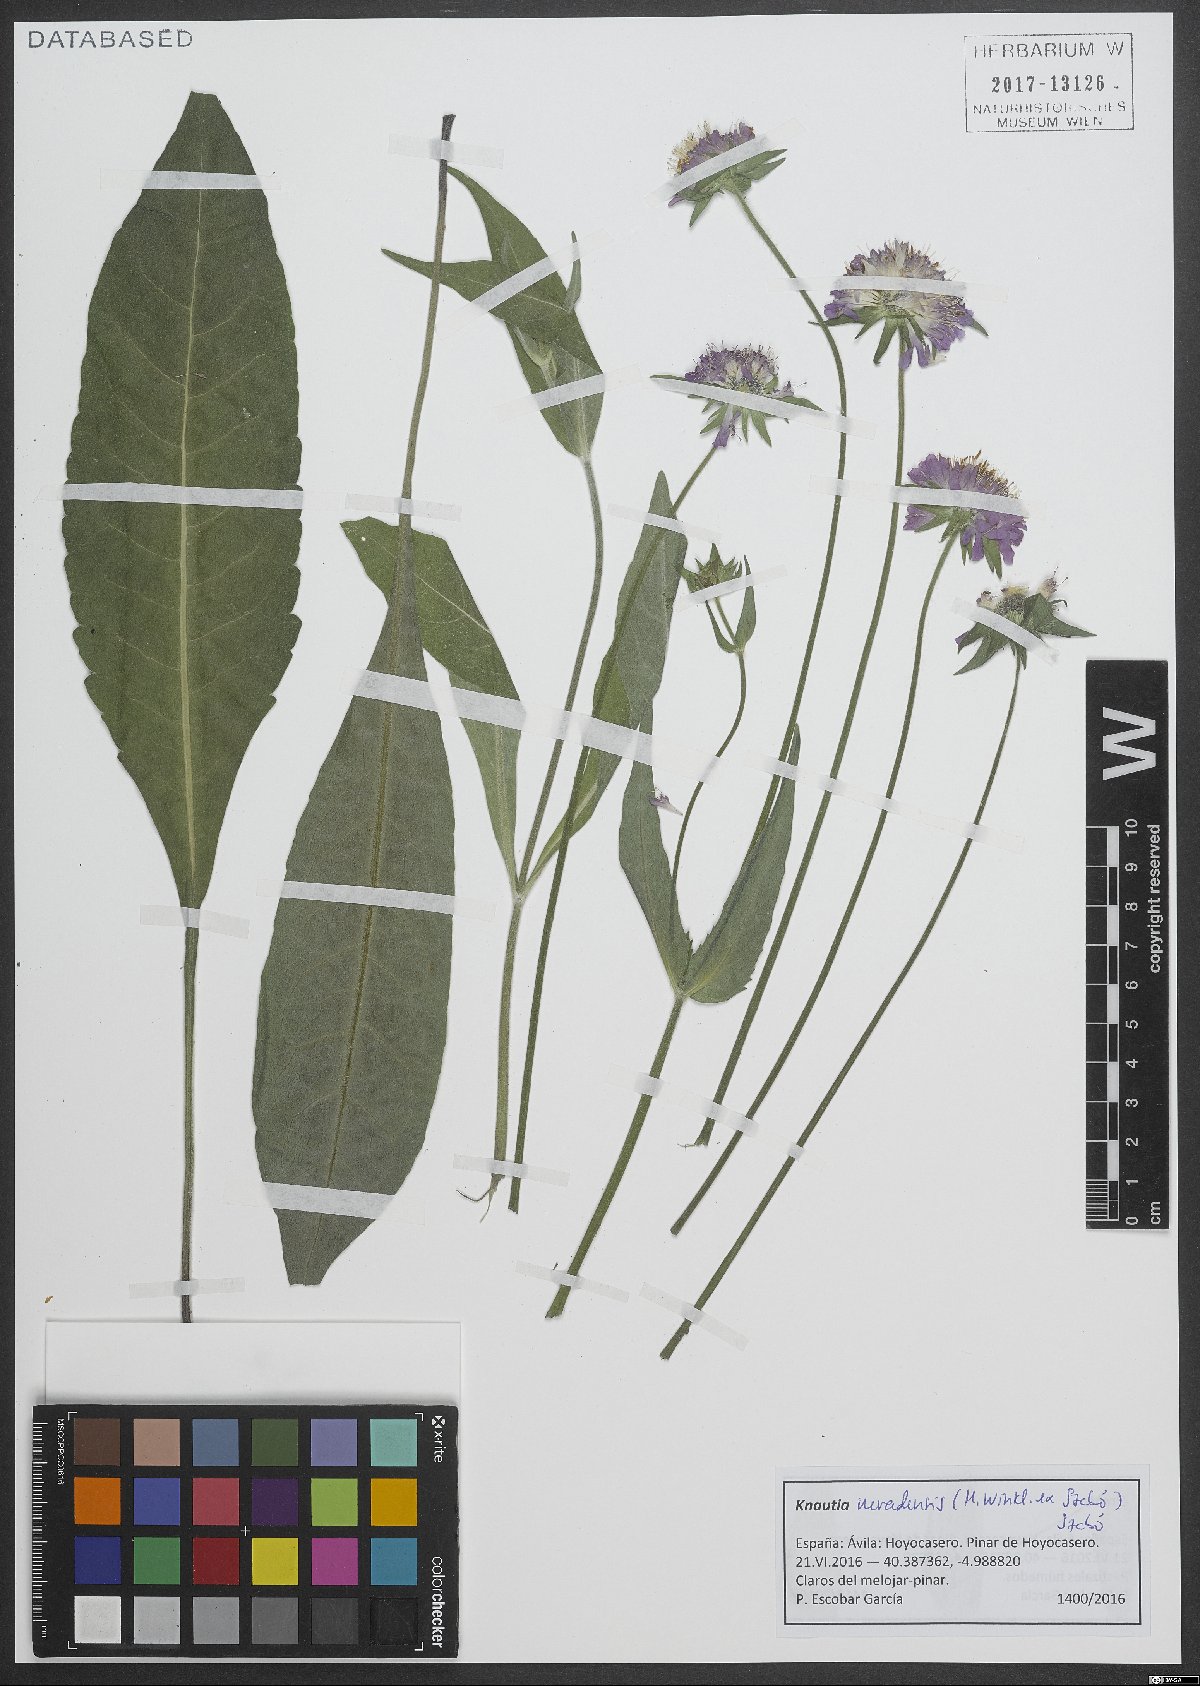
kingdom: Plantae
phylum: Tracheophyta
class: Magnoliopsida
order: Dipsacales
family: Caprifoliaceae
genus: Knautia
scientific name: Knautia nevadensis
